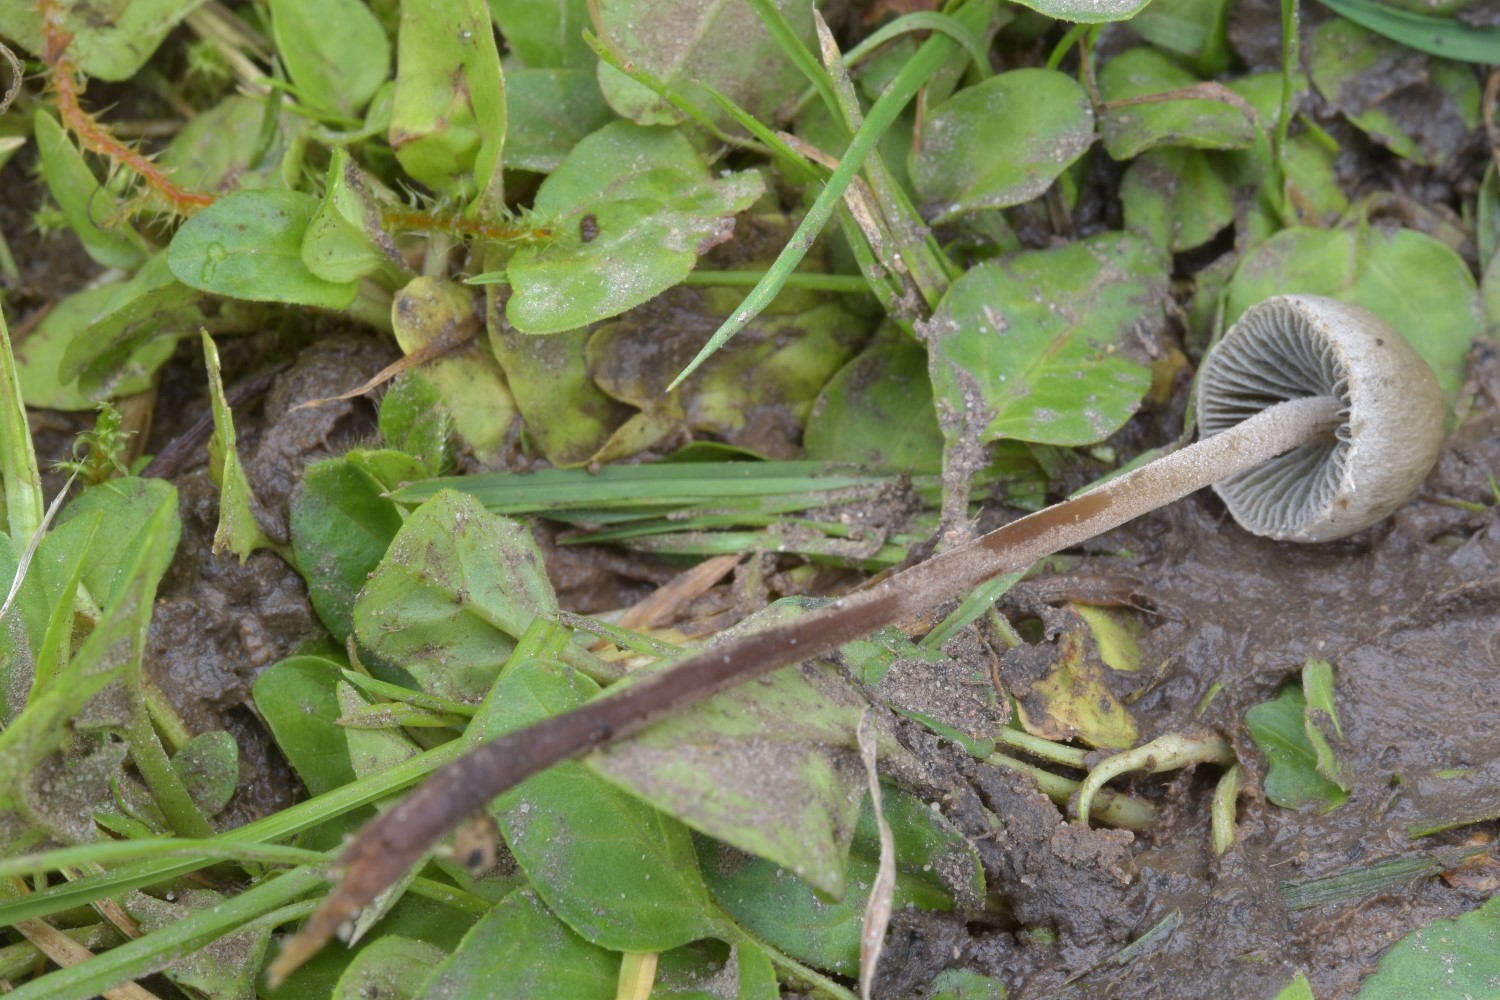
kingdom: Fungi
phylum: Basidiomycota
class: Agaricomycetes
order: Agaricales
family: Bolbitiaceae
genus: Panaeolus
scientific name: Panaeolus papilionaceus
